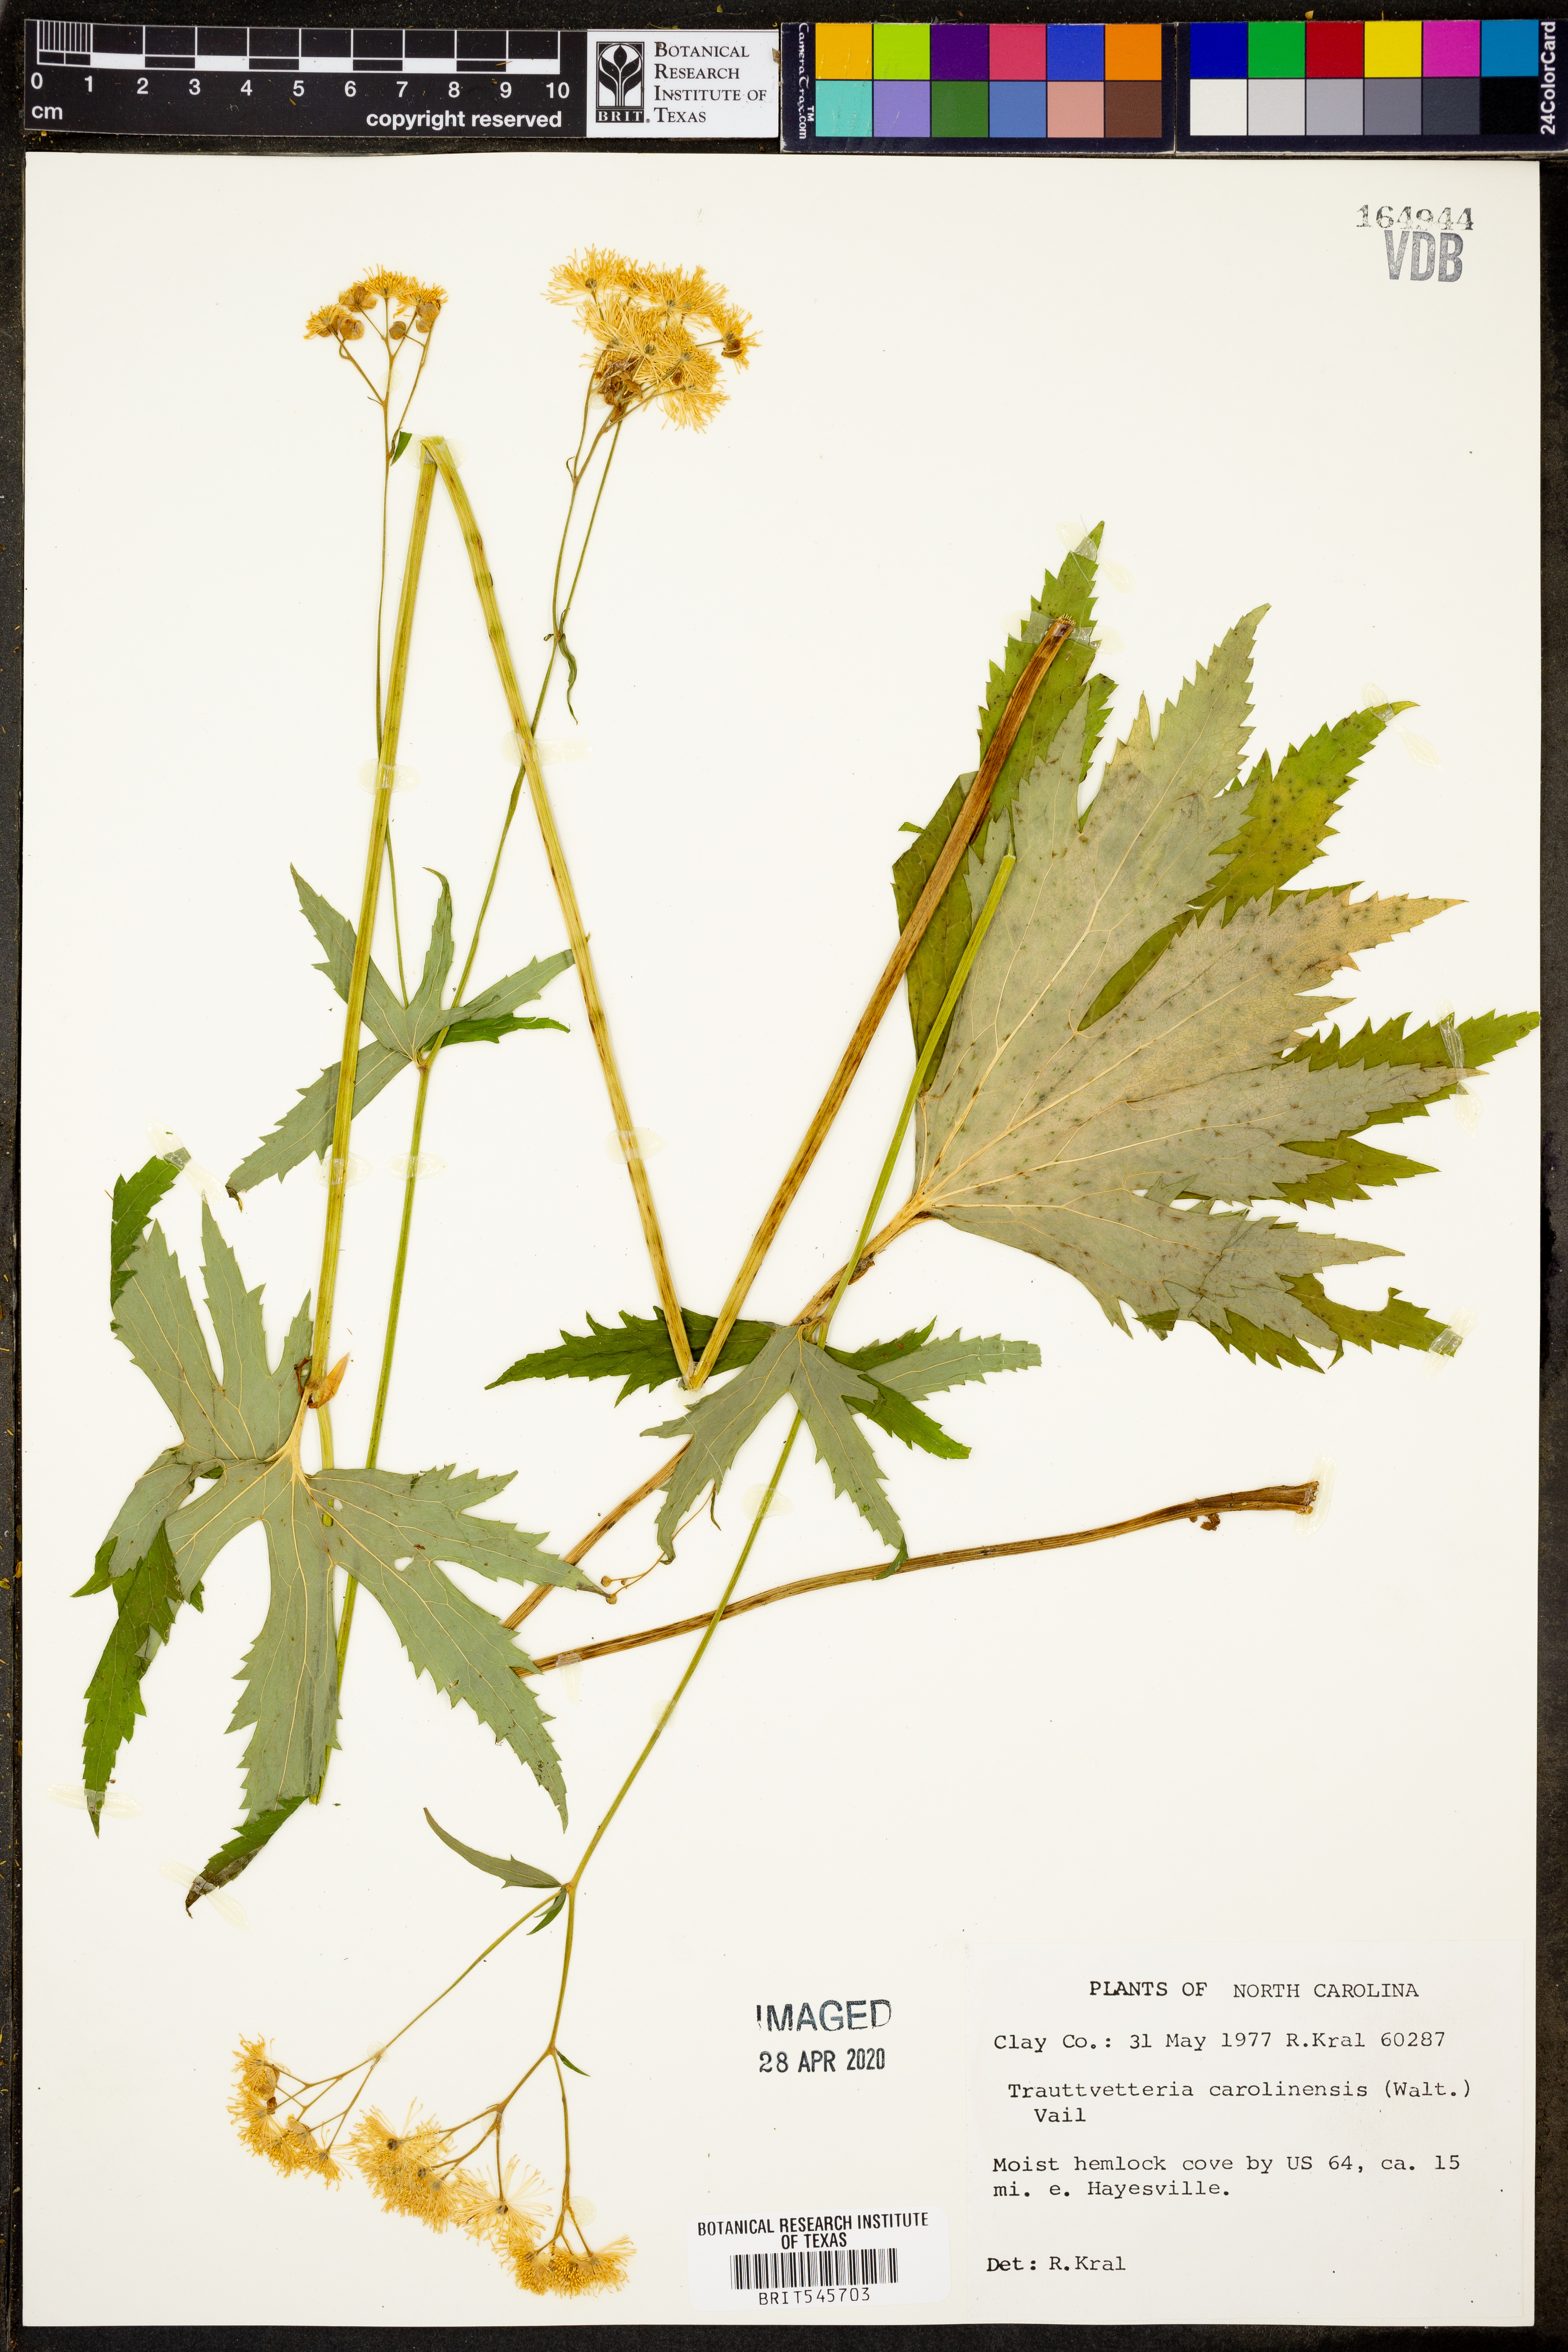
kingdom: Plantae
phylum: Tracheophyta
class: Magnoliopsida
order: Ranunculales
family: Ranunculaceae
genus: Trautvetteria
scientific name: Trautvetteria carolinensis
